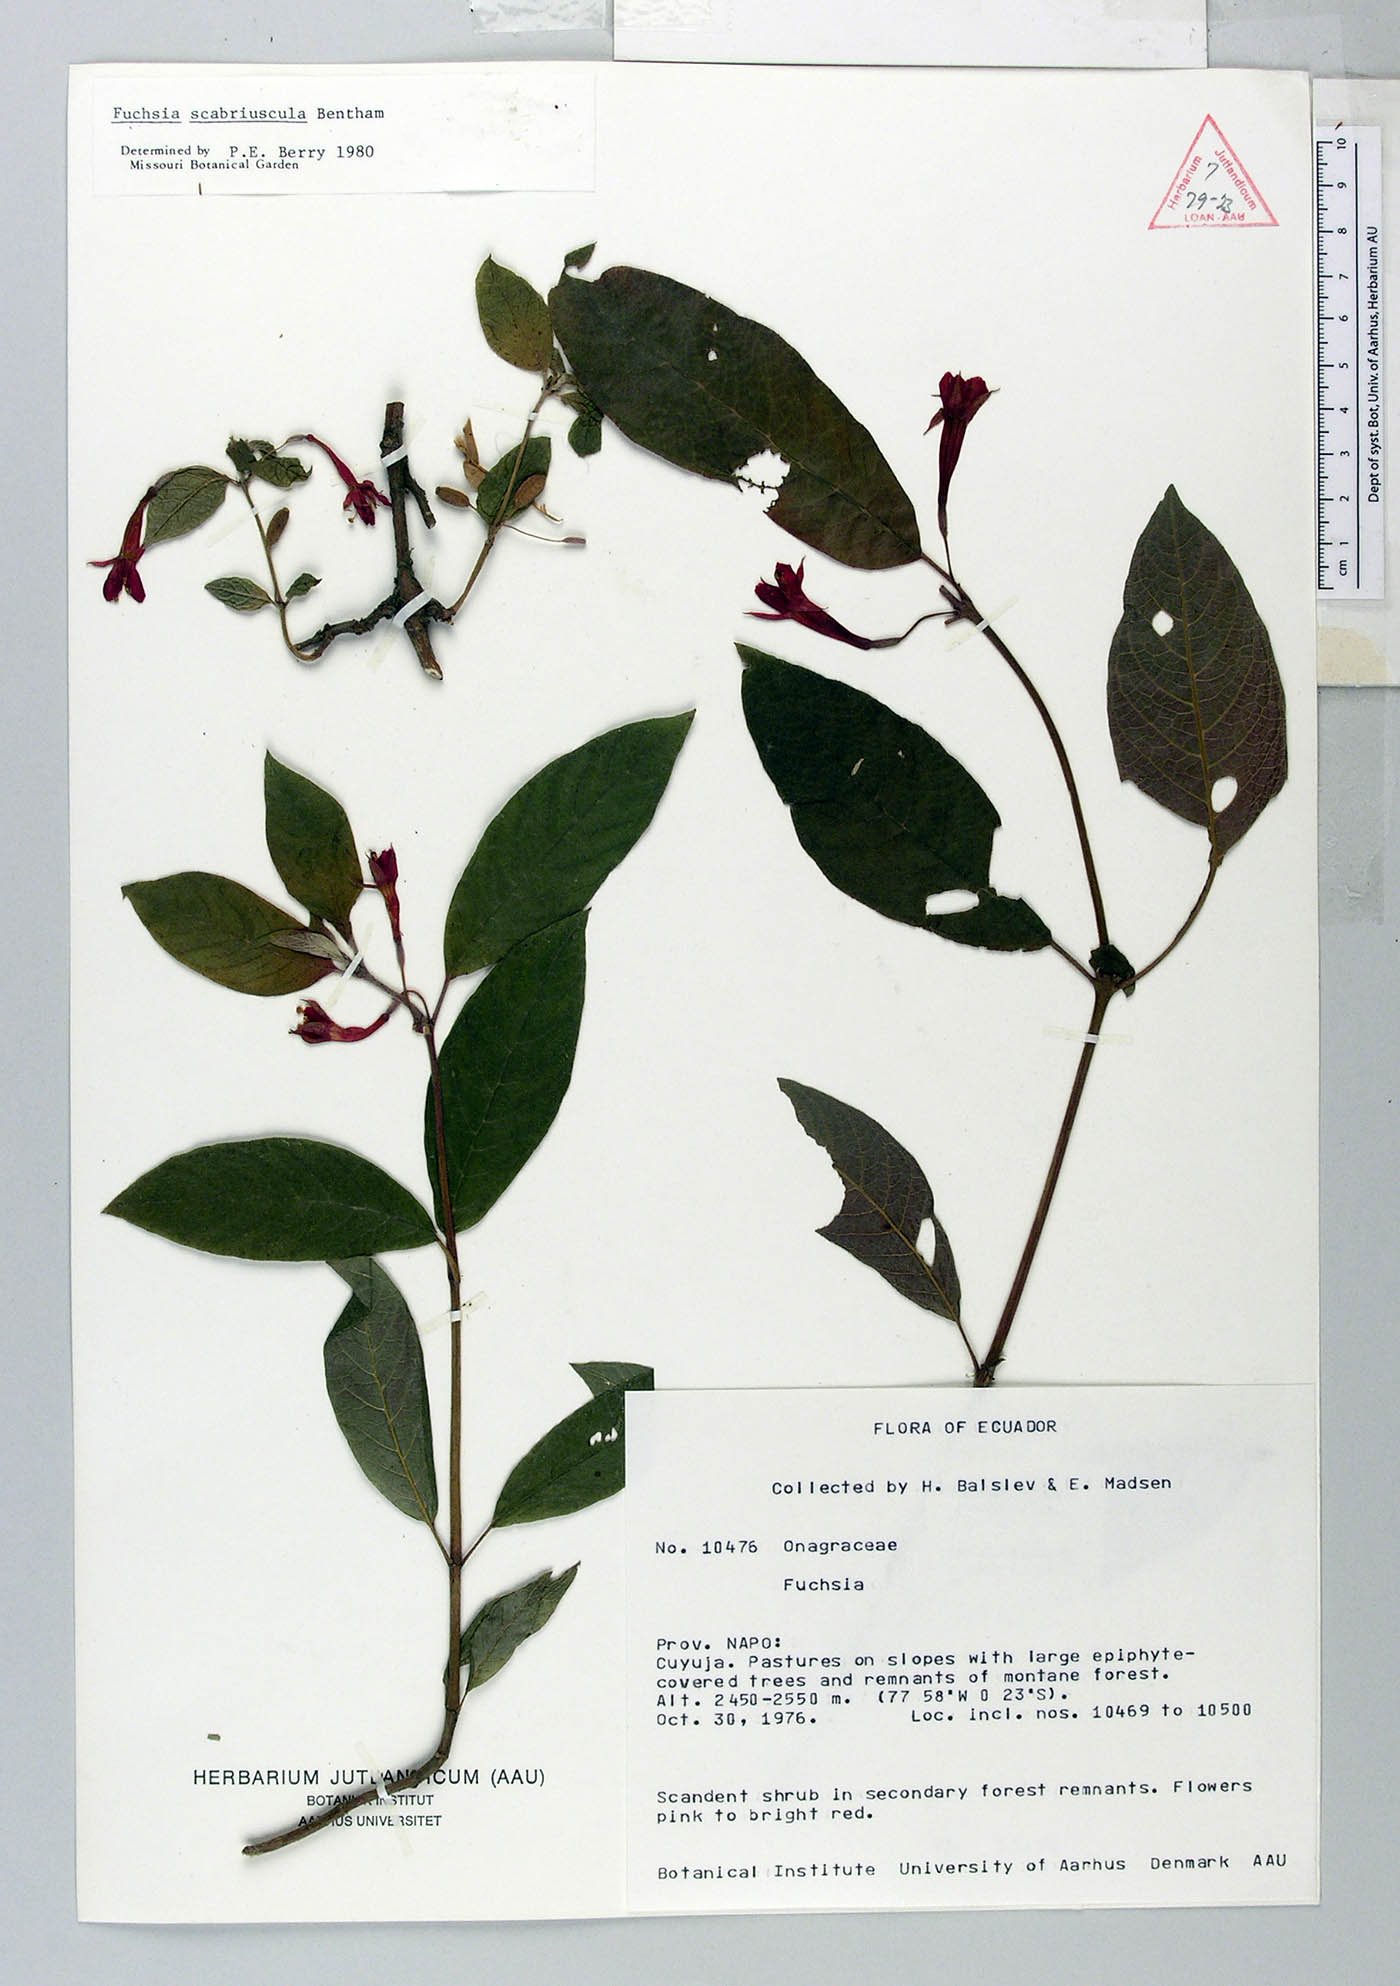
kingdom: Plantae
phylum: Tracheophyta
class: Magnoliopsida
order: Myrtales
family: Onagraceae
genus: Fuchsia
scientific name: Fuchsia scabriuscula
